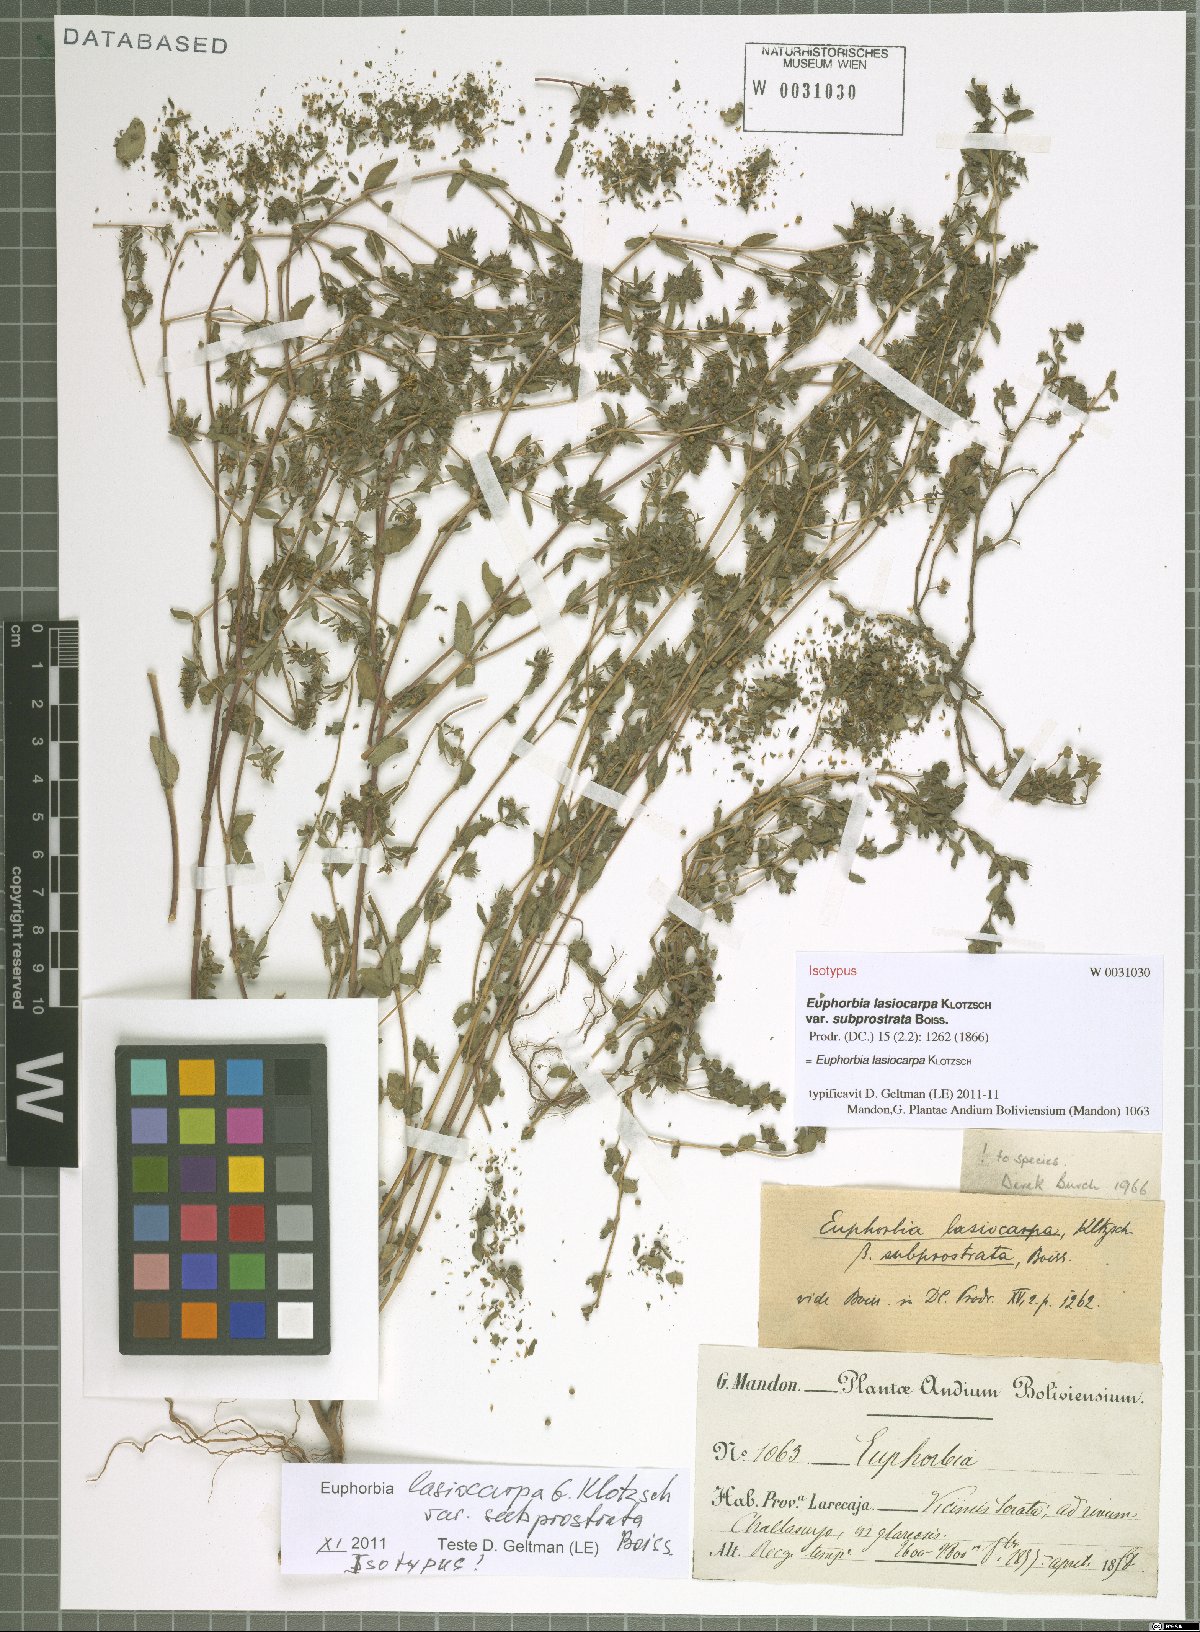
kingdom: Plantae
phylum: Tracheophyta
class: Magnoliopsida
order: Malpighiales
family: Euphorbiaceae
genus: Euphorbia
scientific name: Euphorbia lasiocarpa
